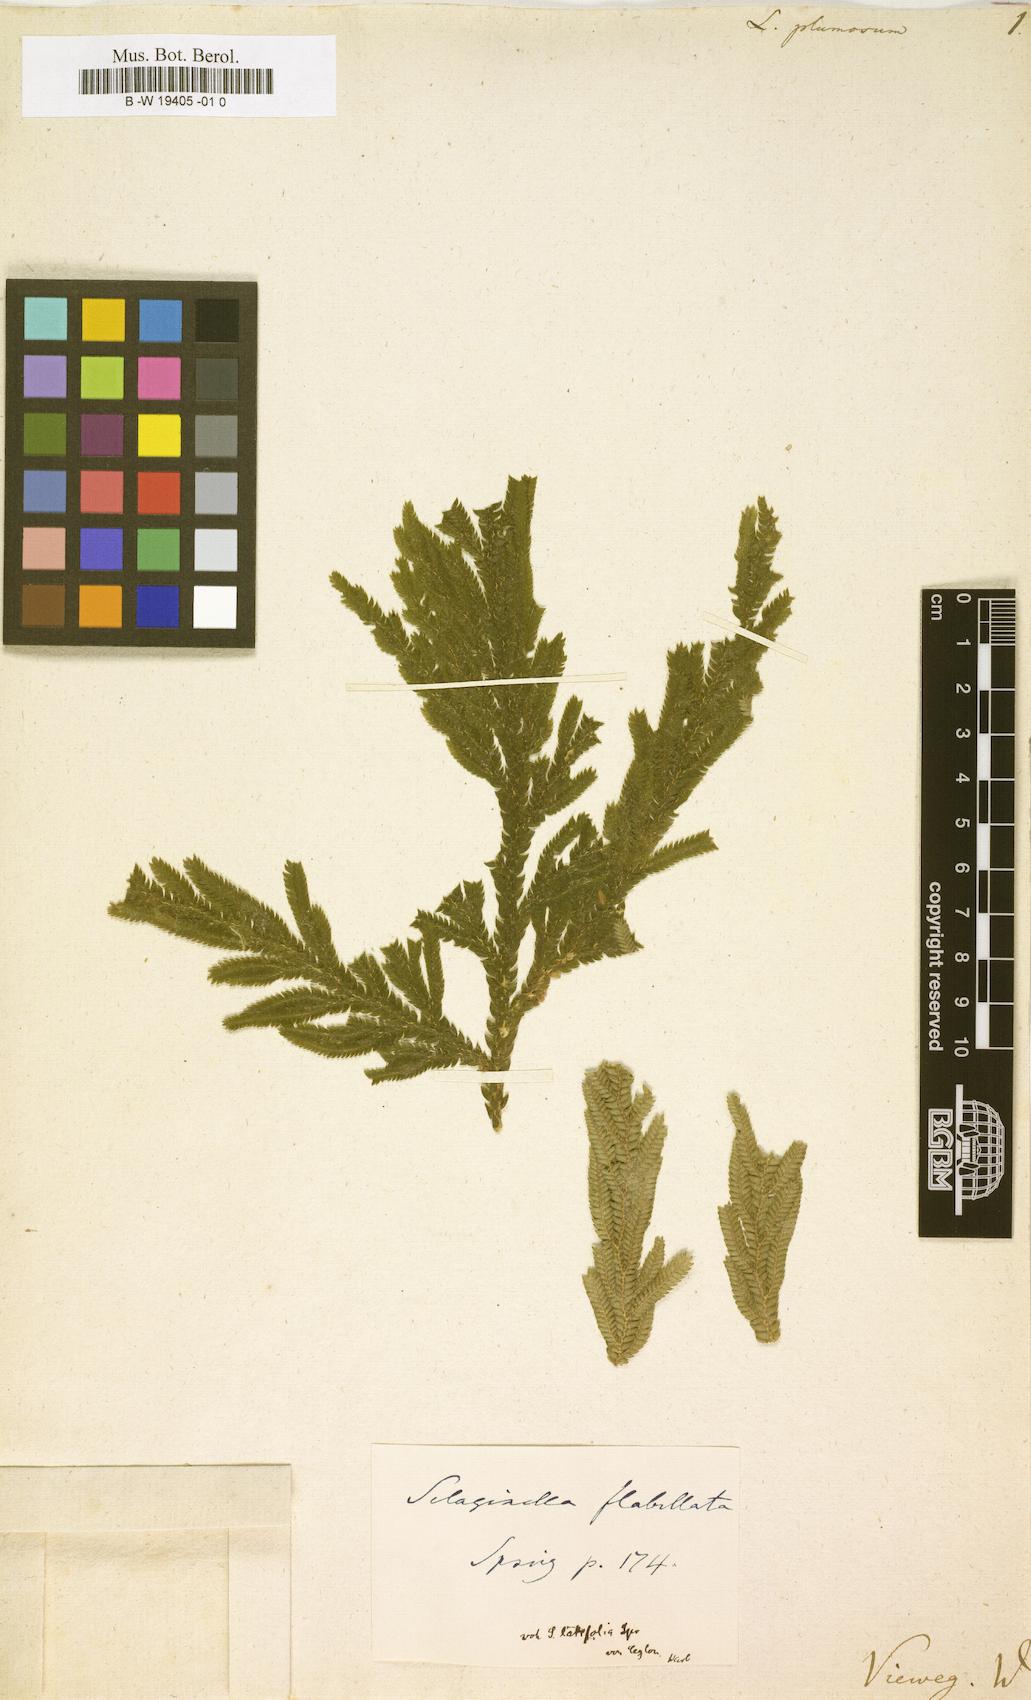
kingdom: Plantae
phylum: Tracheophyta
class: Lycopodiopsida
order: Selaginellales
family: Selaginellaceae
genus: Selaginella
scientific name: Selaginella
